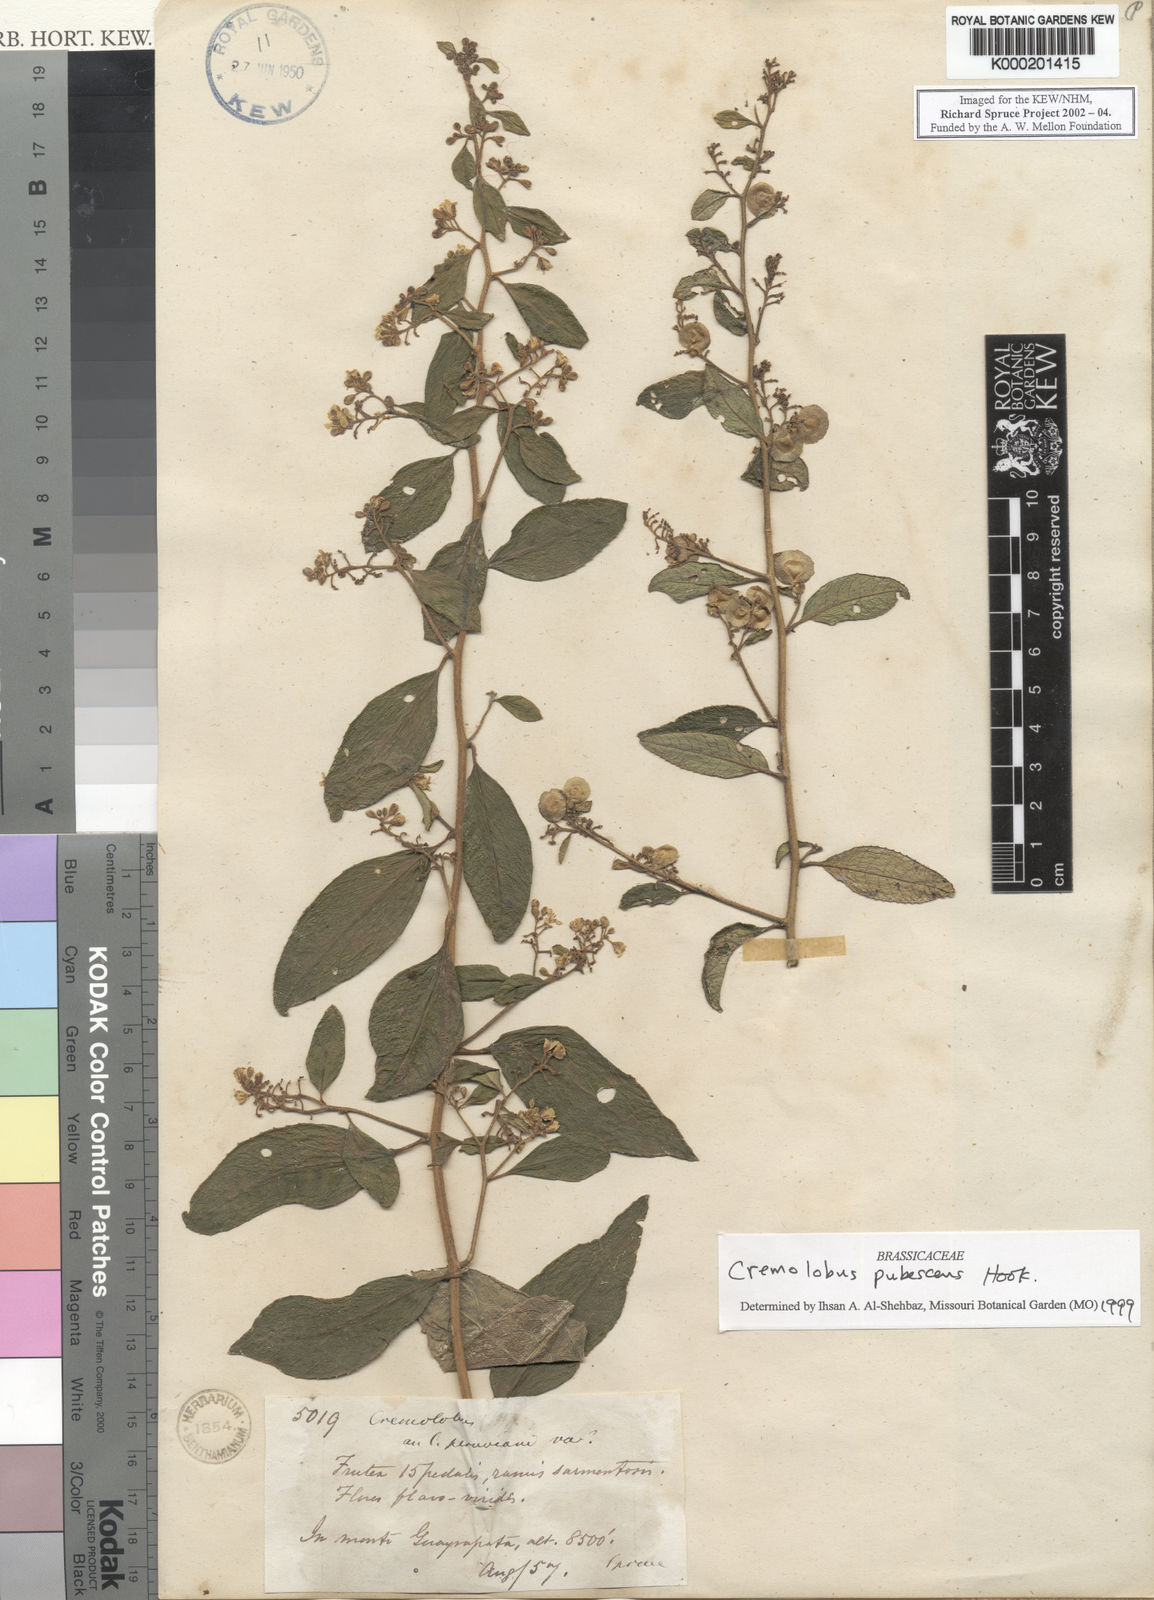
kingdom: Plantae
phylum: Tracheophyta
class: Magnoliopsida
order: Brassicales
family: Brassicaceae
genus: Cremolobus
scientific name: Cremolobus peruvianus
